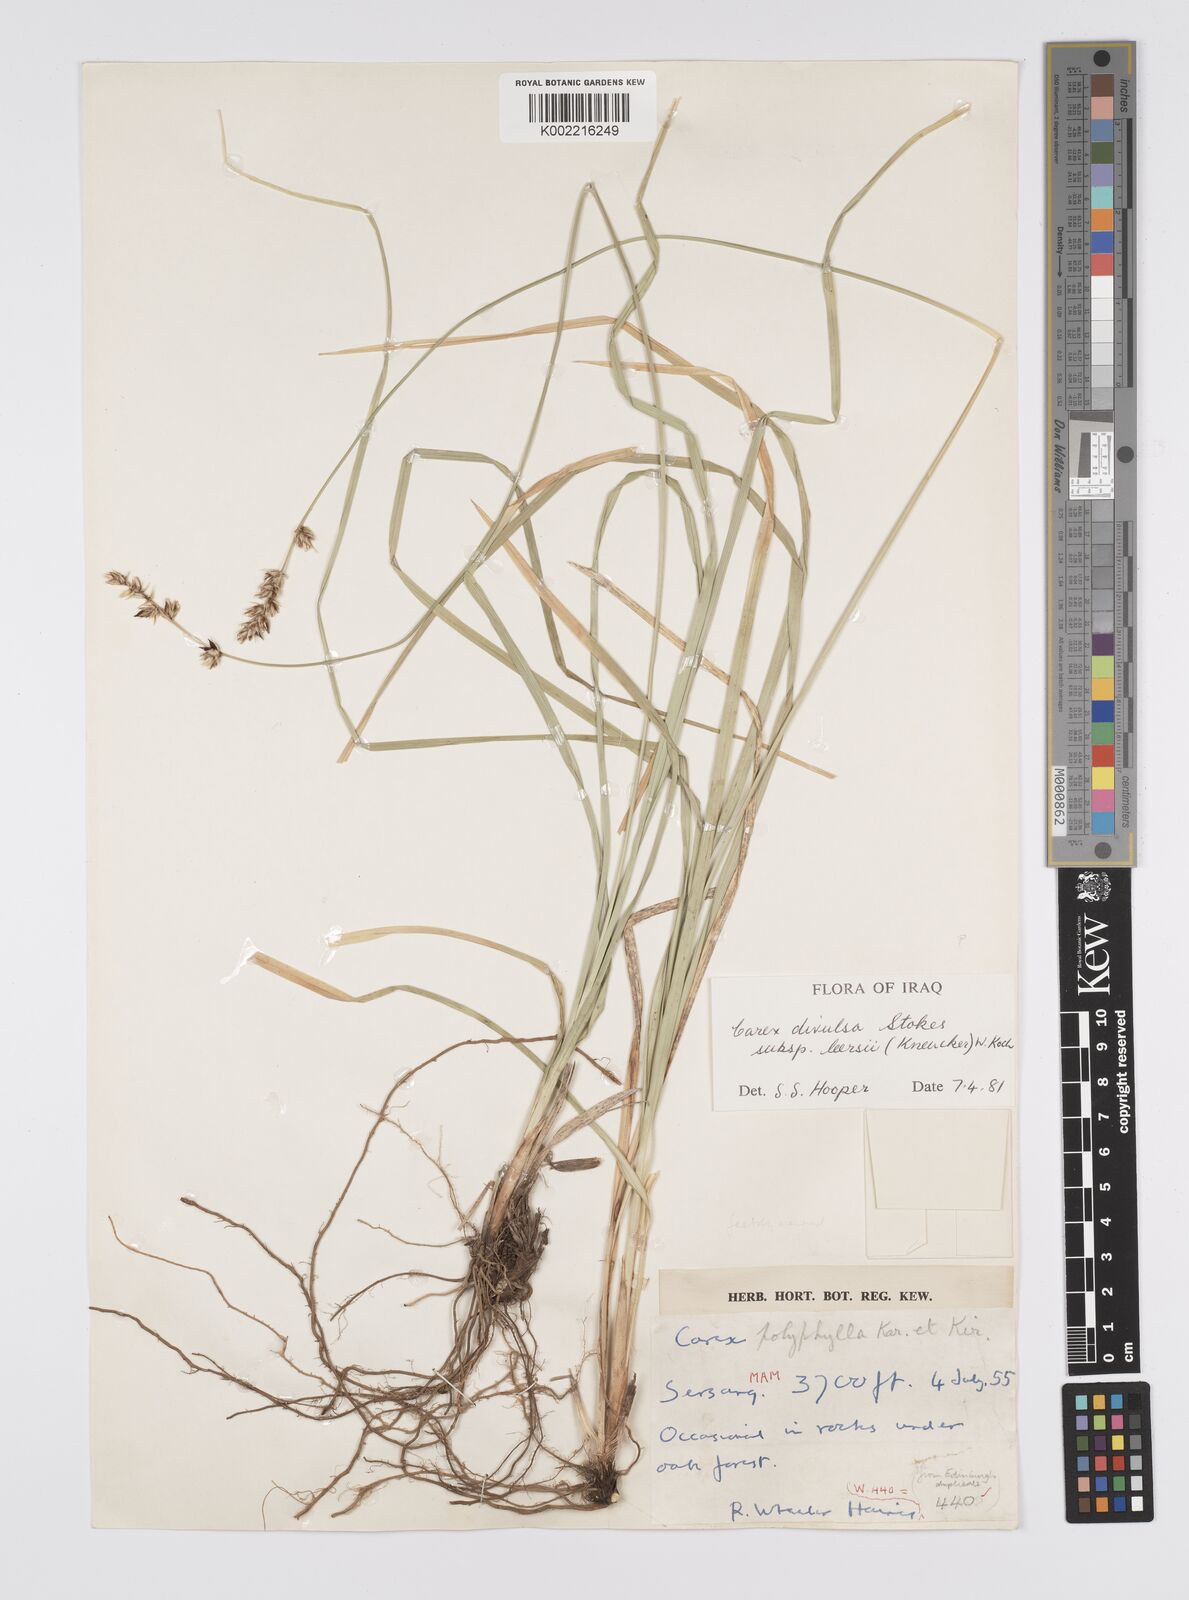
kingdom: Plantae
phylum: Tracheophyta
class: Liliopsida
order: Poales
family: Cyperaceae
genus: Carex
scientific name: Carex polyphylla
